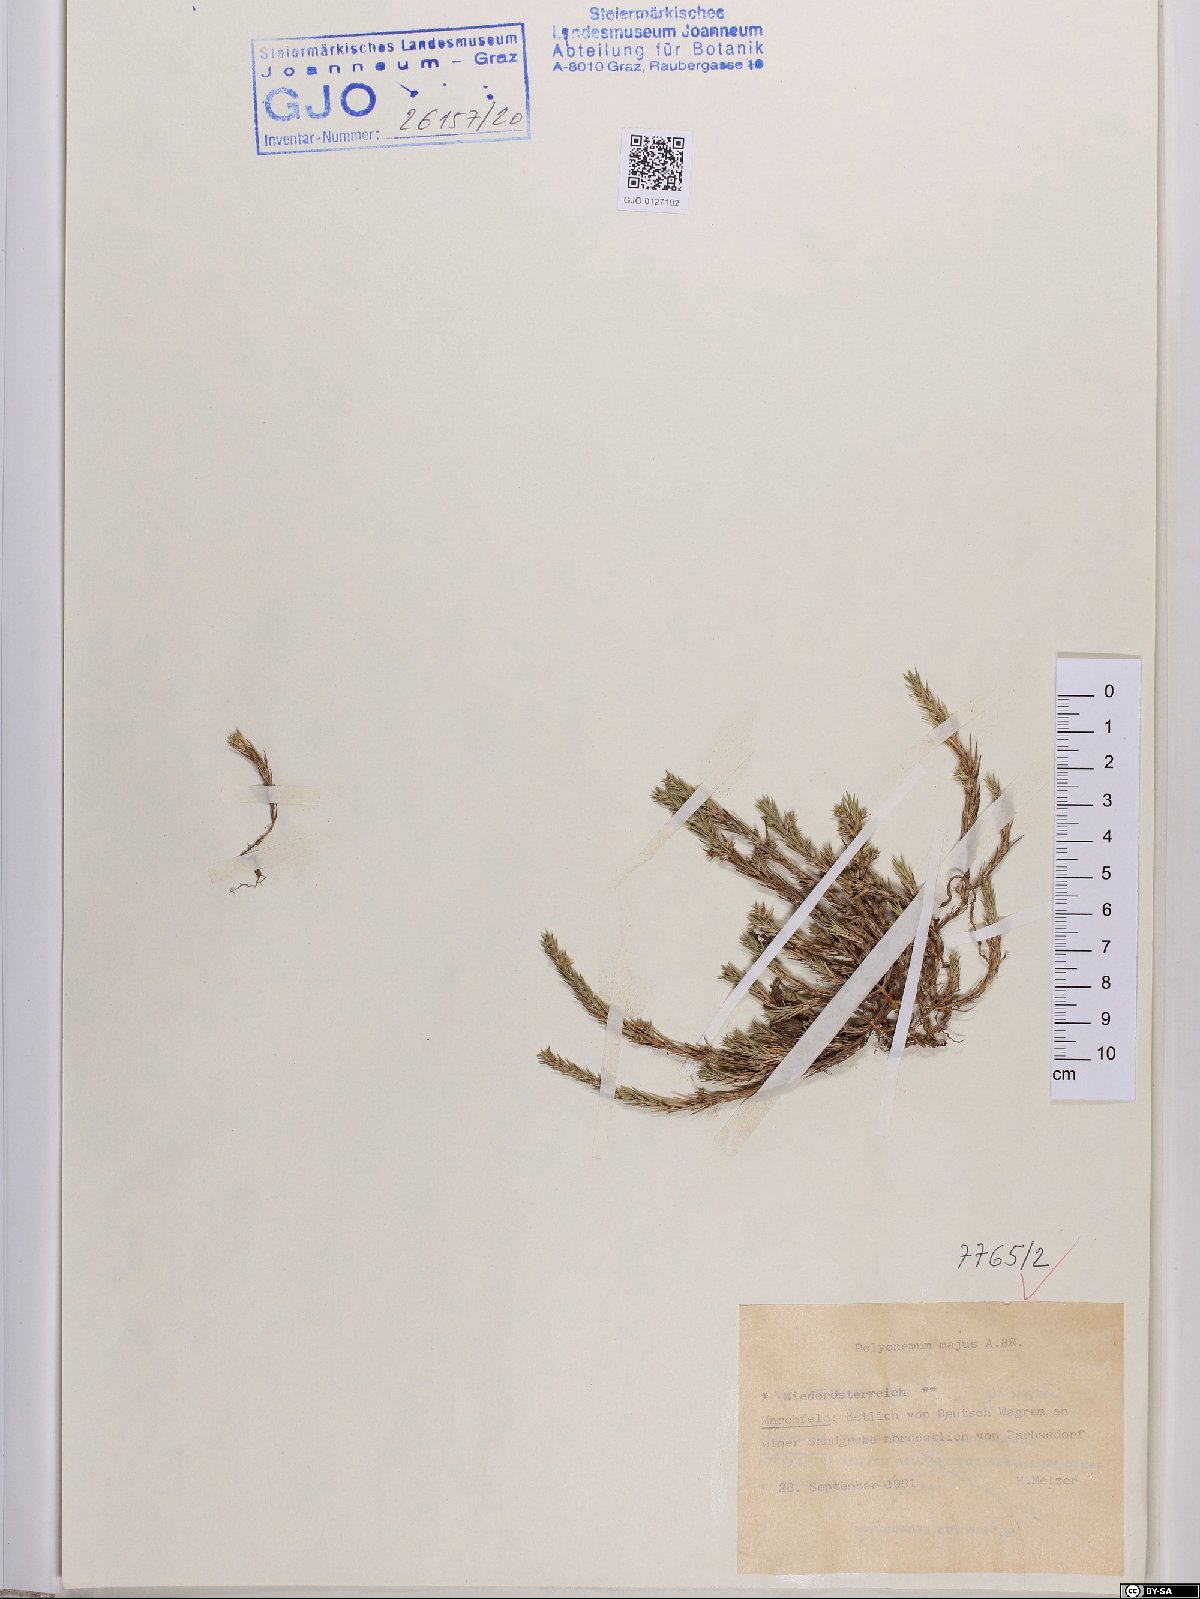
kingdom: Plantae
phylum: Tracheophyta
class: Magnoliopsida
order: Caryophyllales
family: Amaranthaceae
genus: Polycnemum
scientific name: Polycnemum majus
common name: Giant needleleaf
